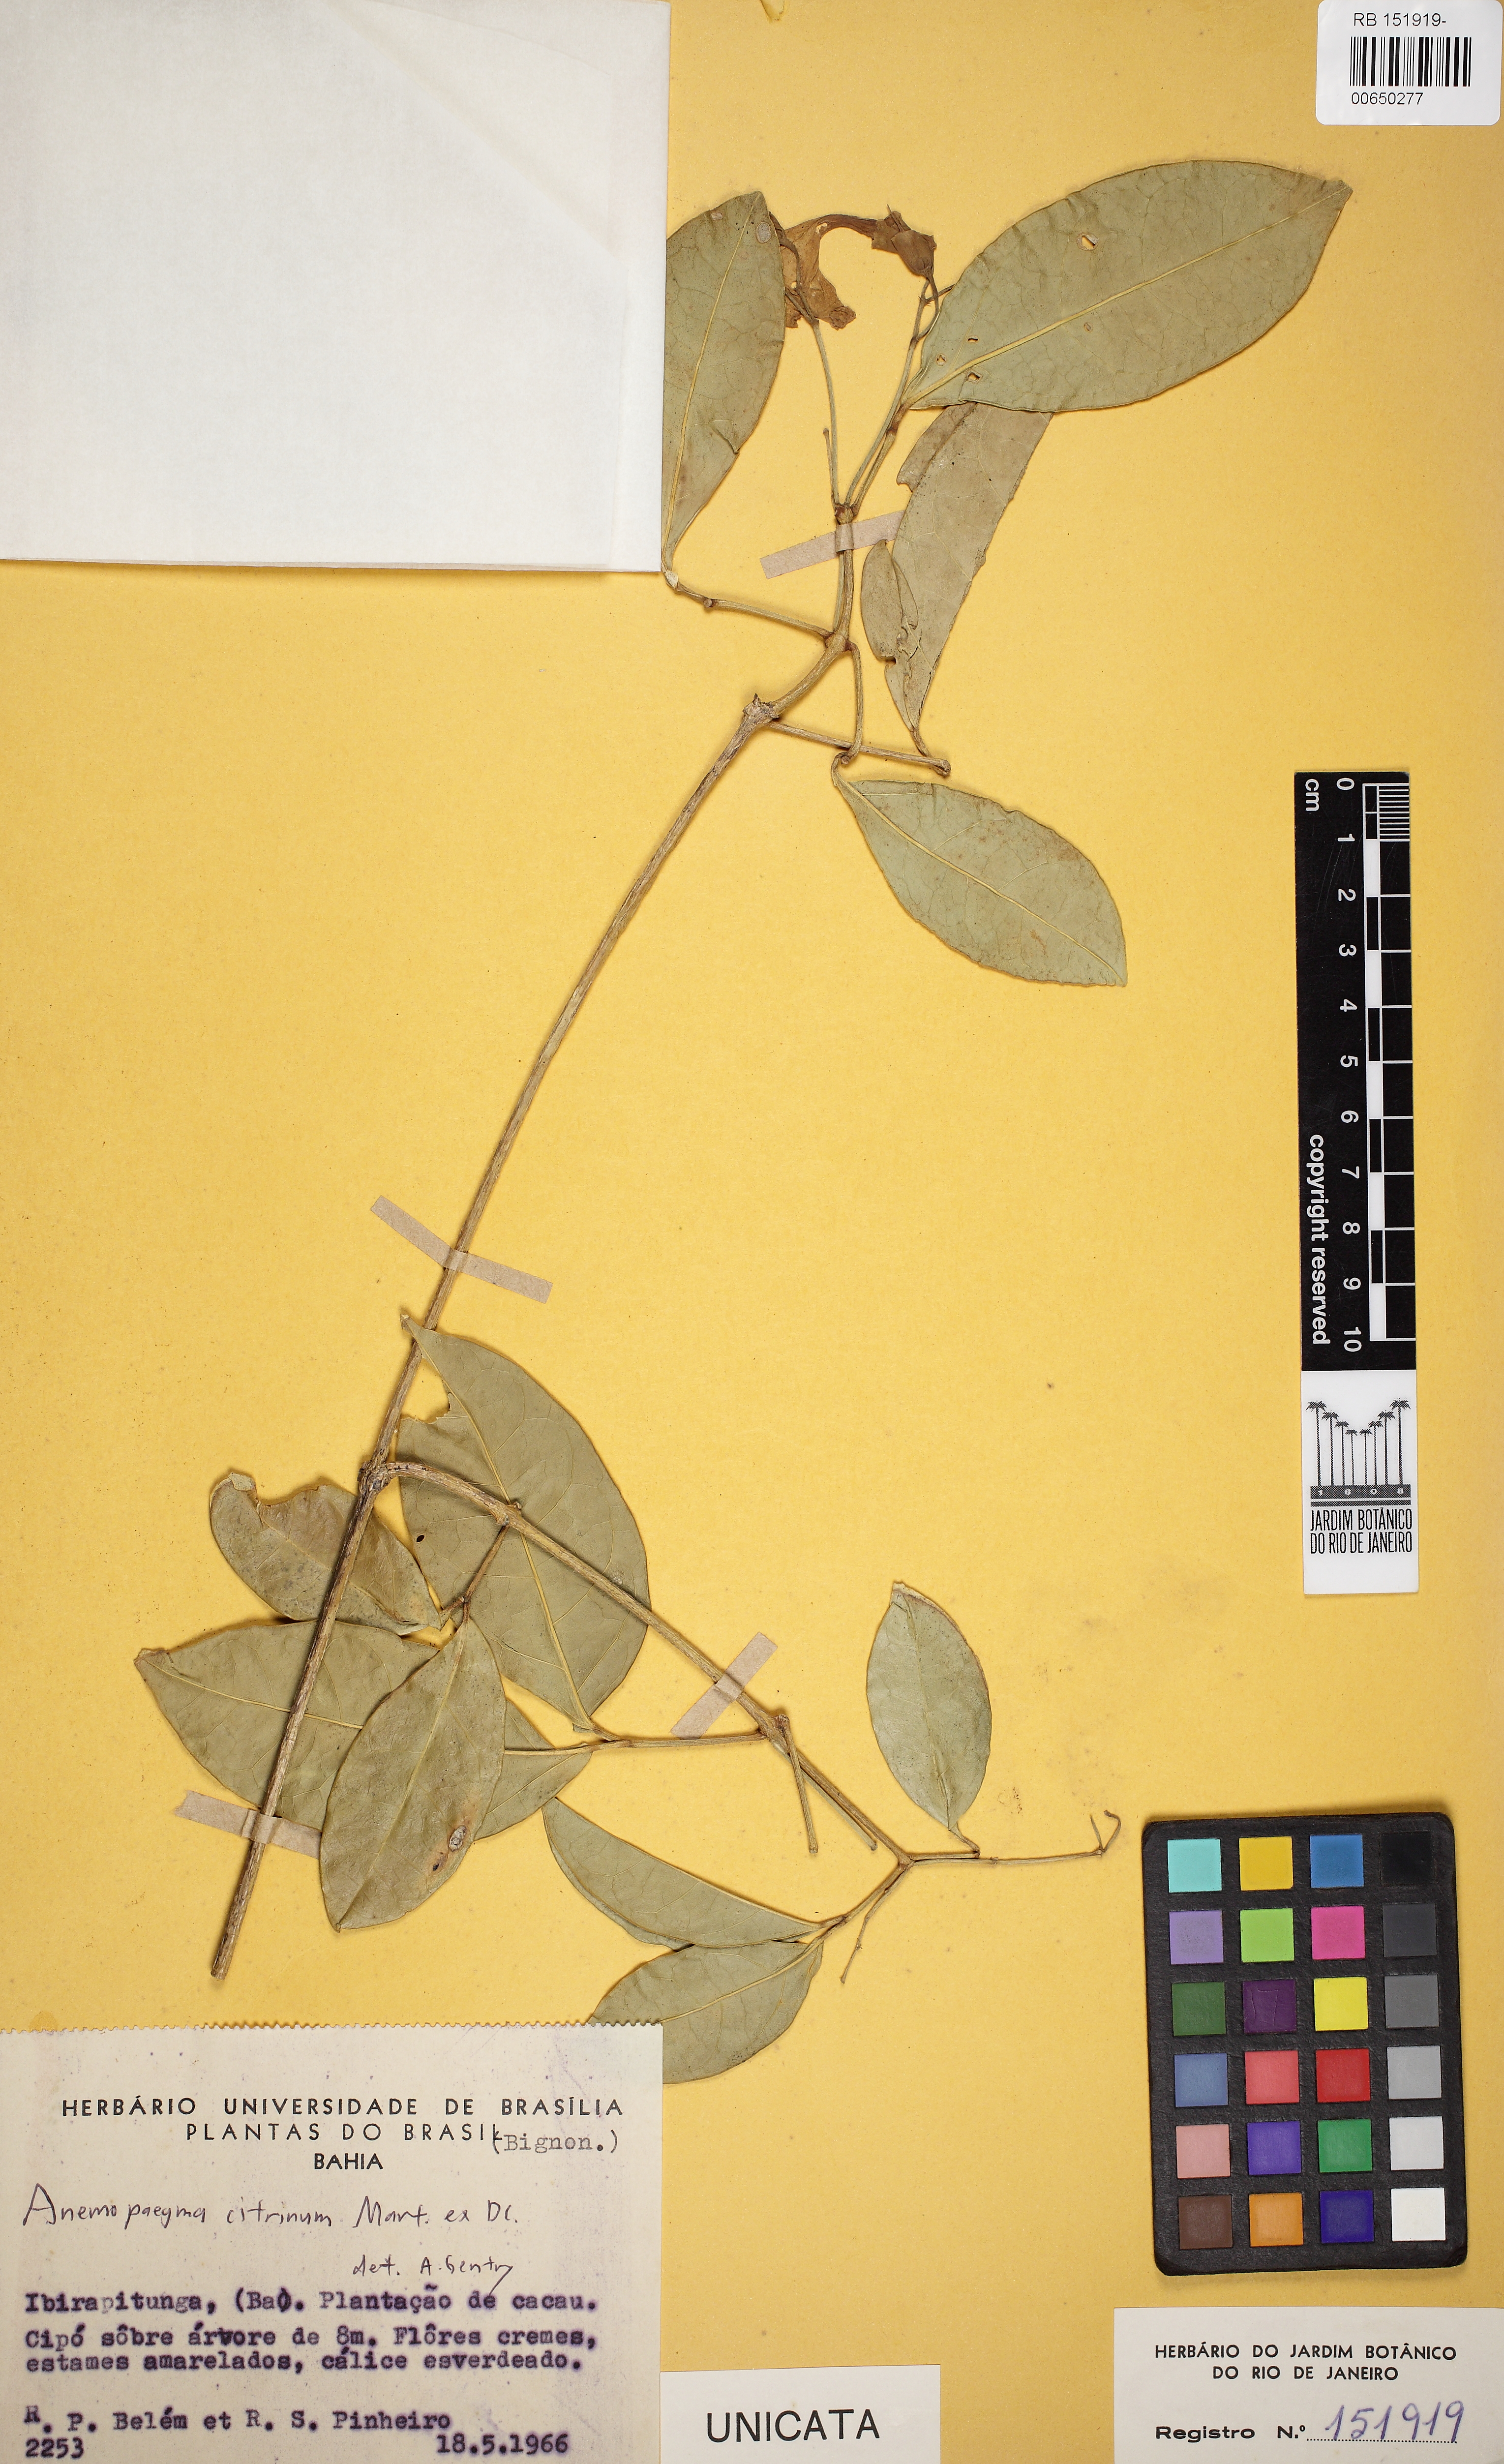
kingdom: Plantae
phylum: Tracheophyta
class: Magnoliopsida
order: Lamiales
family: Bignoniaceae
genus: Anemopaegma
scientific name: Anemopaegma citrinum
